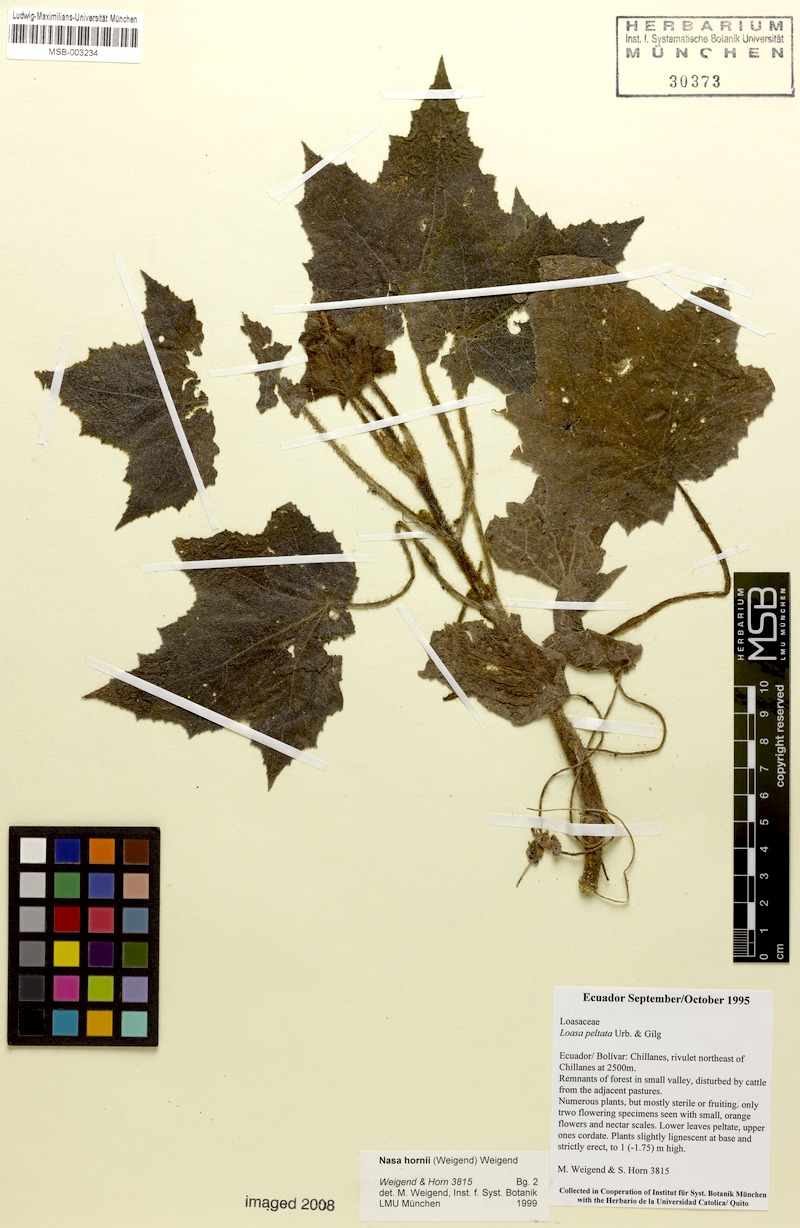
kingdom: Plantae
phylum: Tracheophyta
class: Magnoliopsida
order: Cornales
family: Loasaceae
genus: Nasa
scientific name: Nasa hornii
